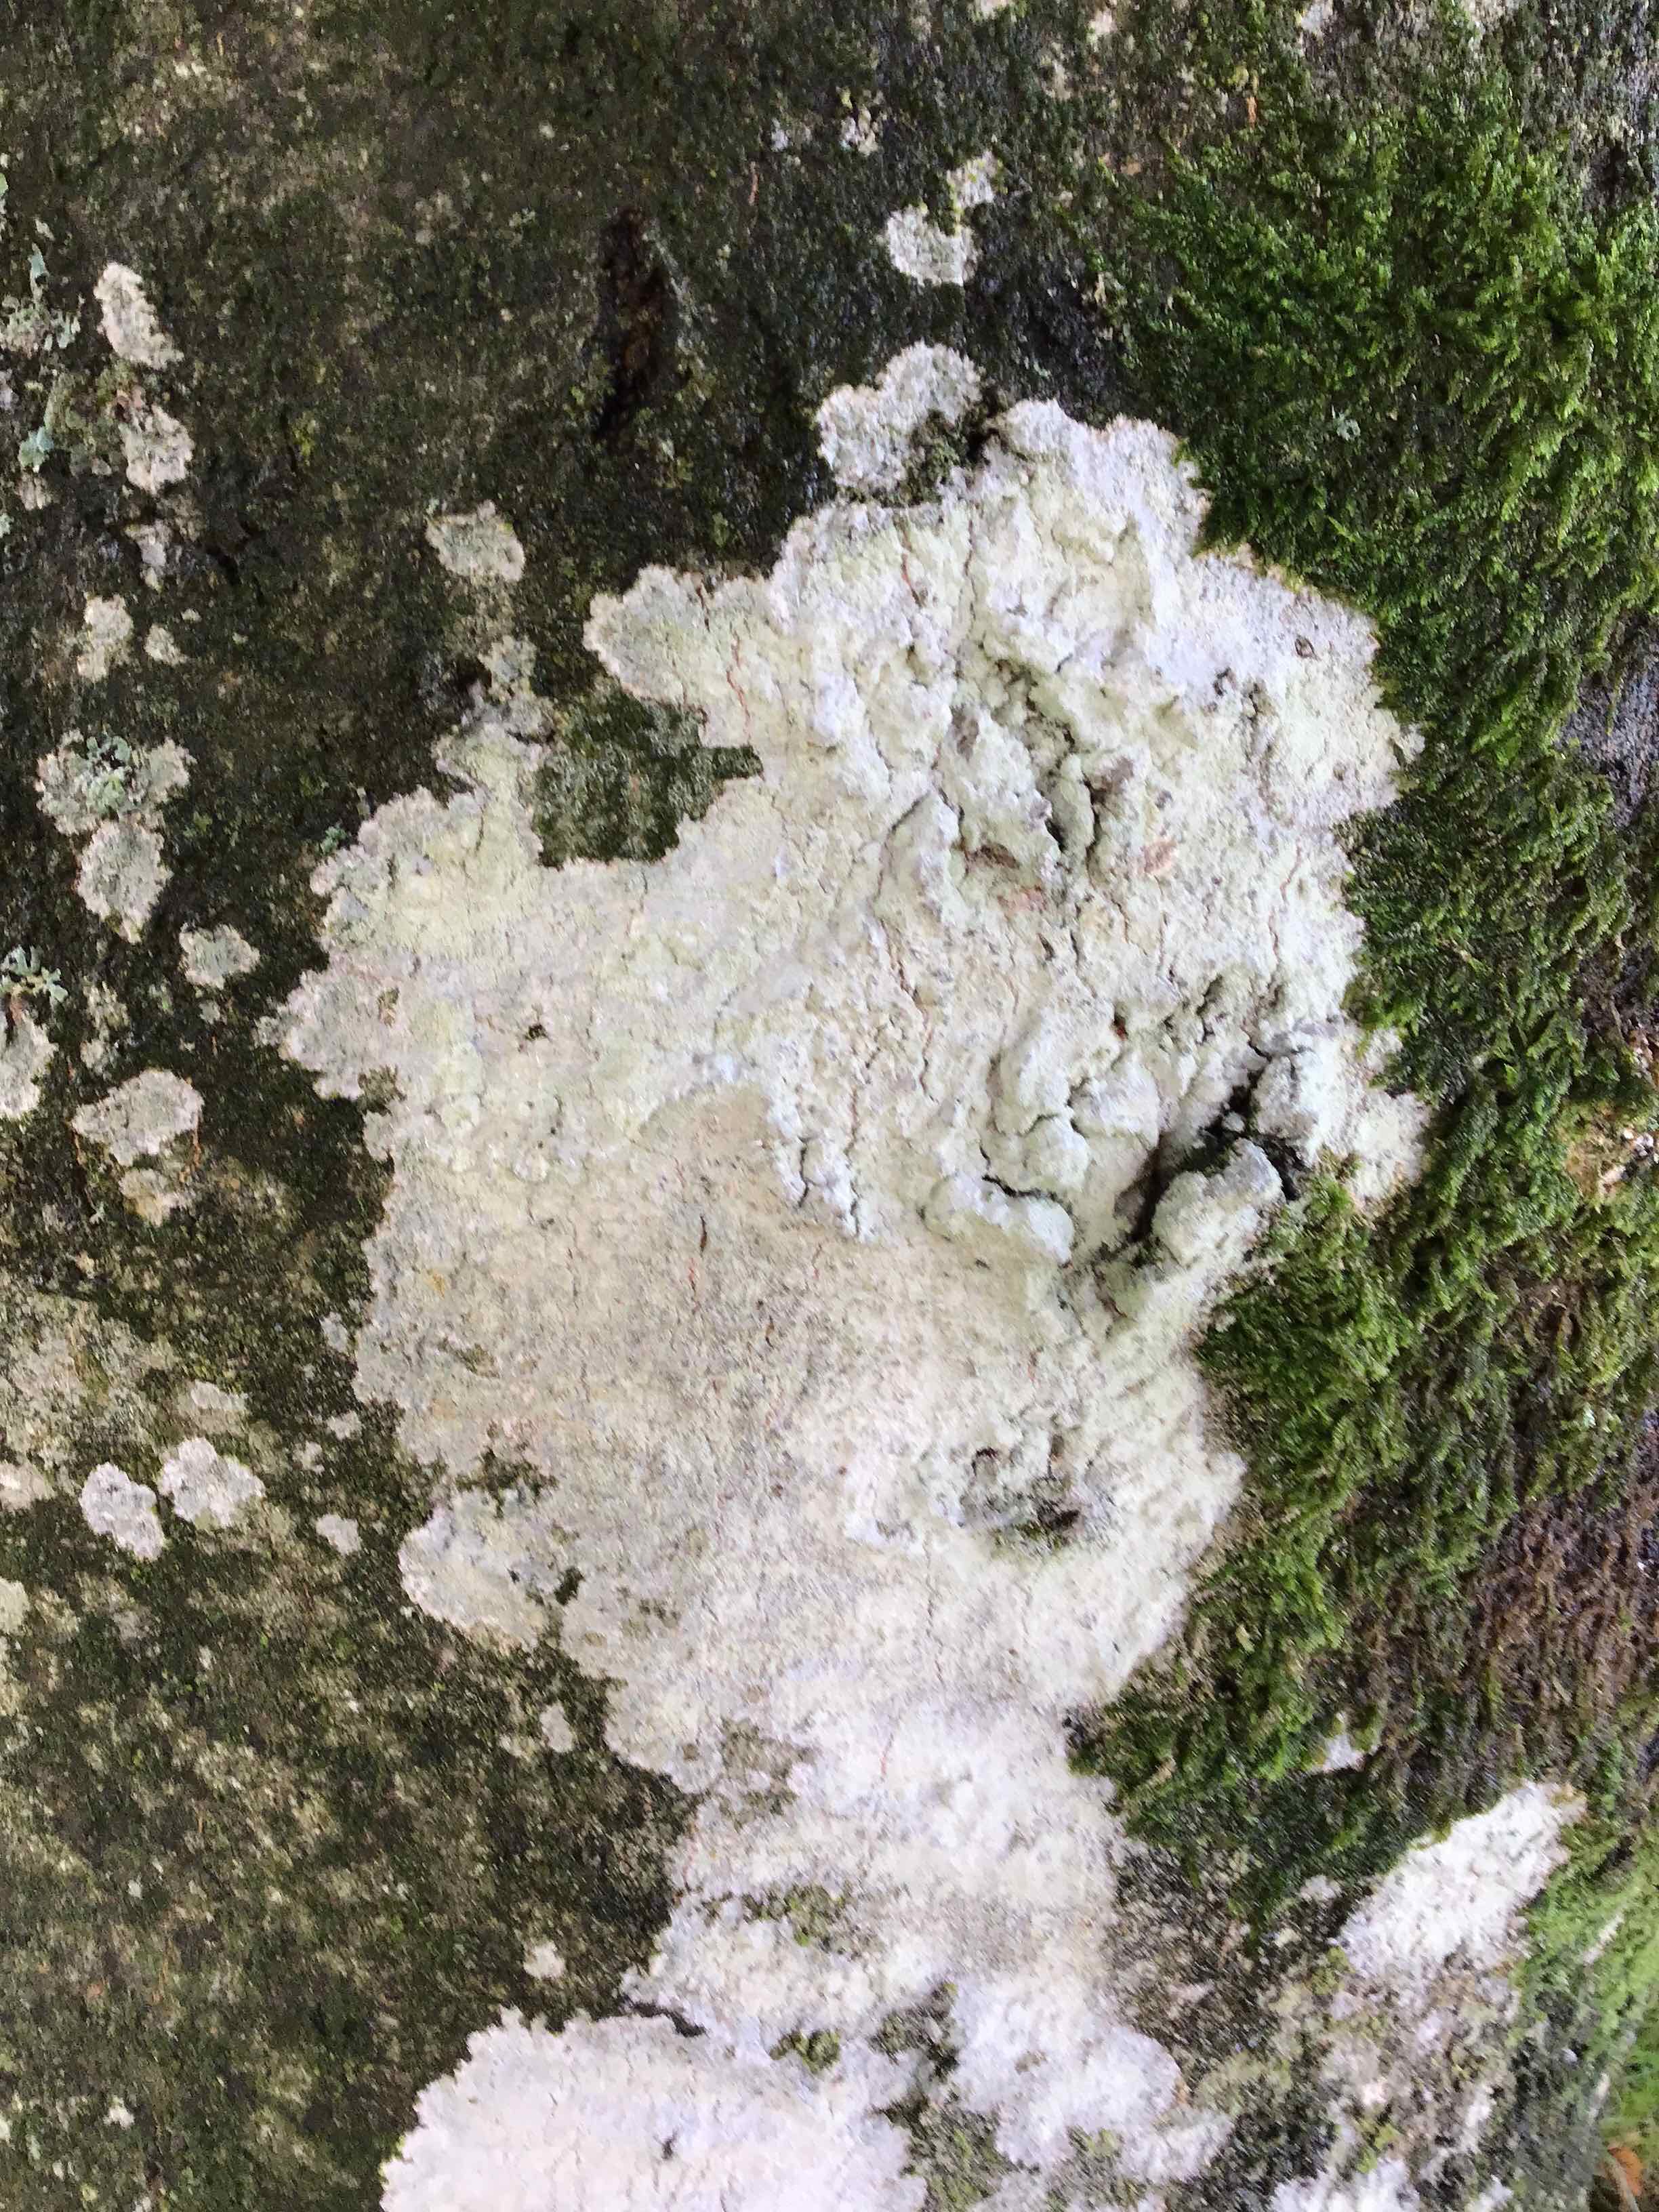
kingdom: Fungi
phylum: Ascomycota
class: Lecanoromycetes
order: Ostropales
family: Phlyctidaceae
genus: Phlyctis
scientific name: Phlyctis argena
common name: almindelig sølvlav
